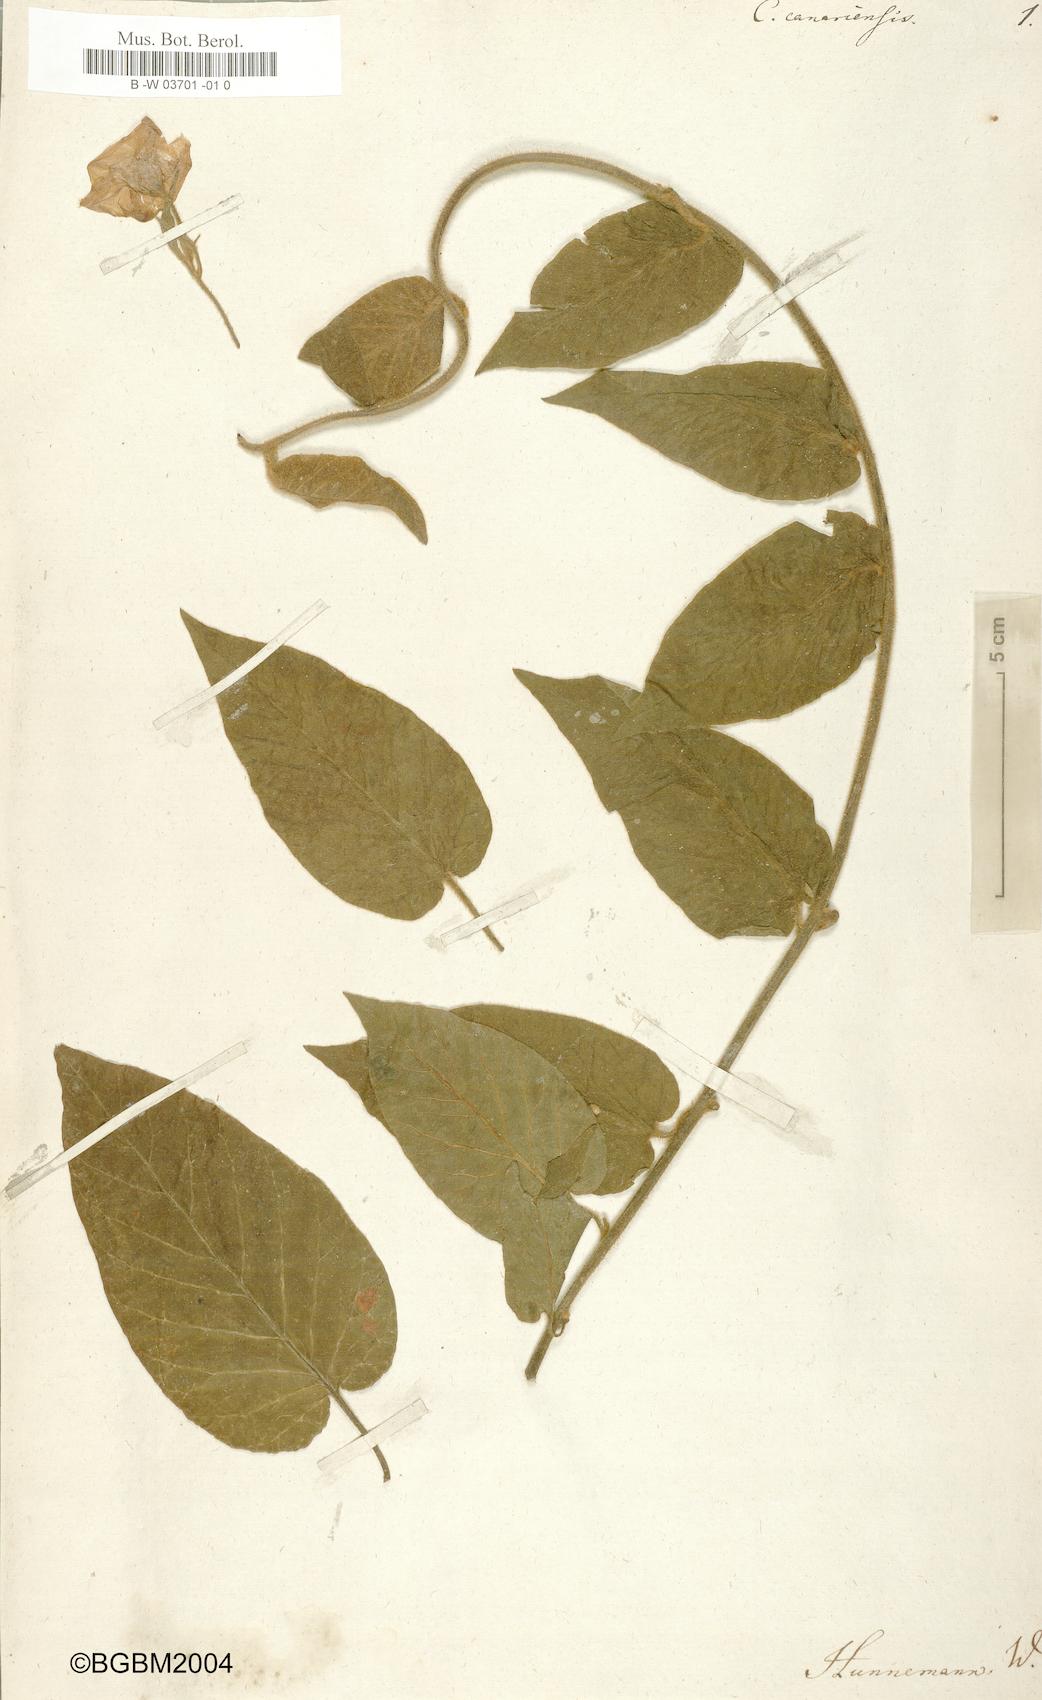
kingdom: Plantae
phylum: Tracheophyta
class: Magnoliopsida
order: Solanales
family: Convolvulaceae
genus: Convolvulus
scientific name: Convolvulus canariensis
